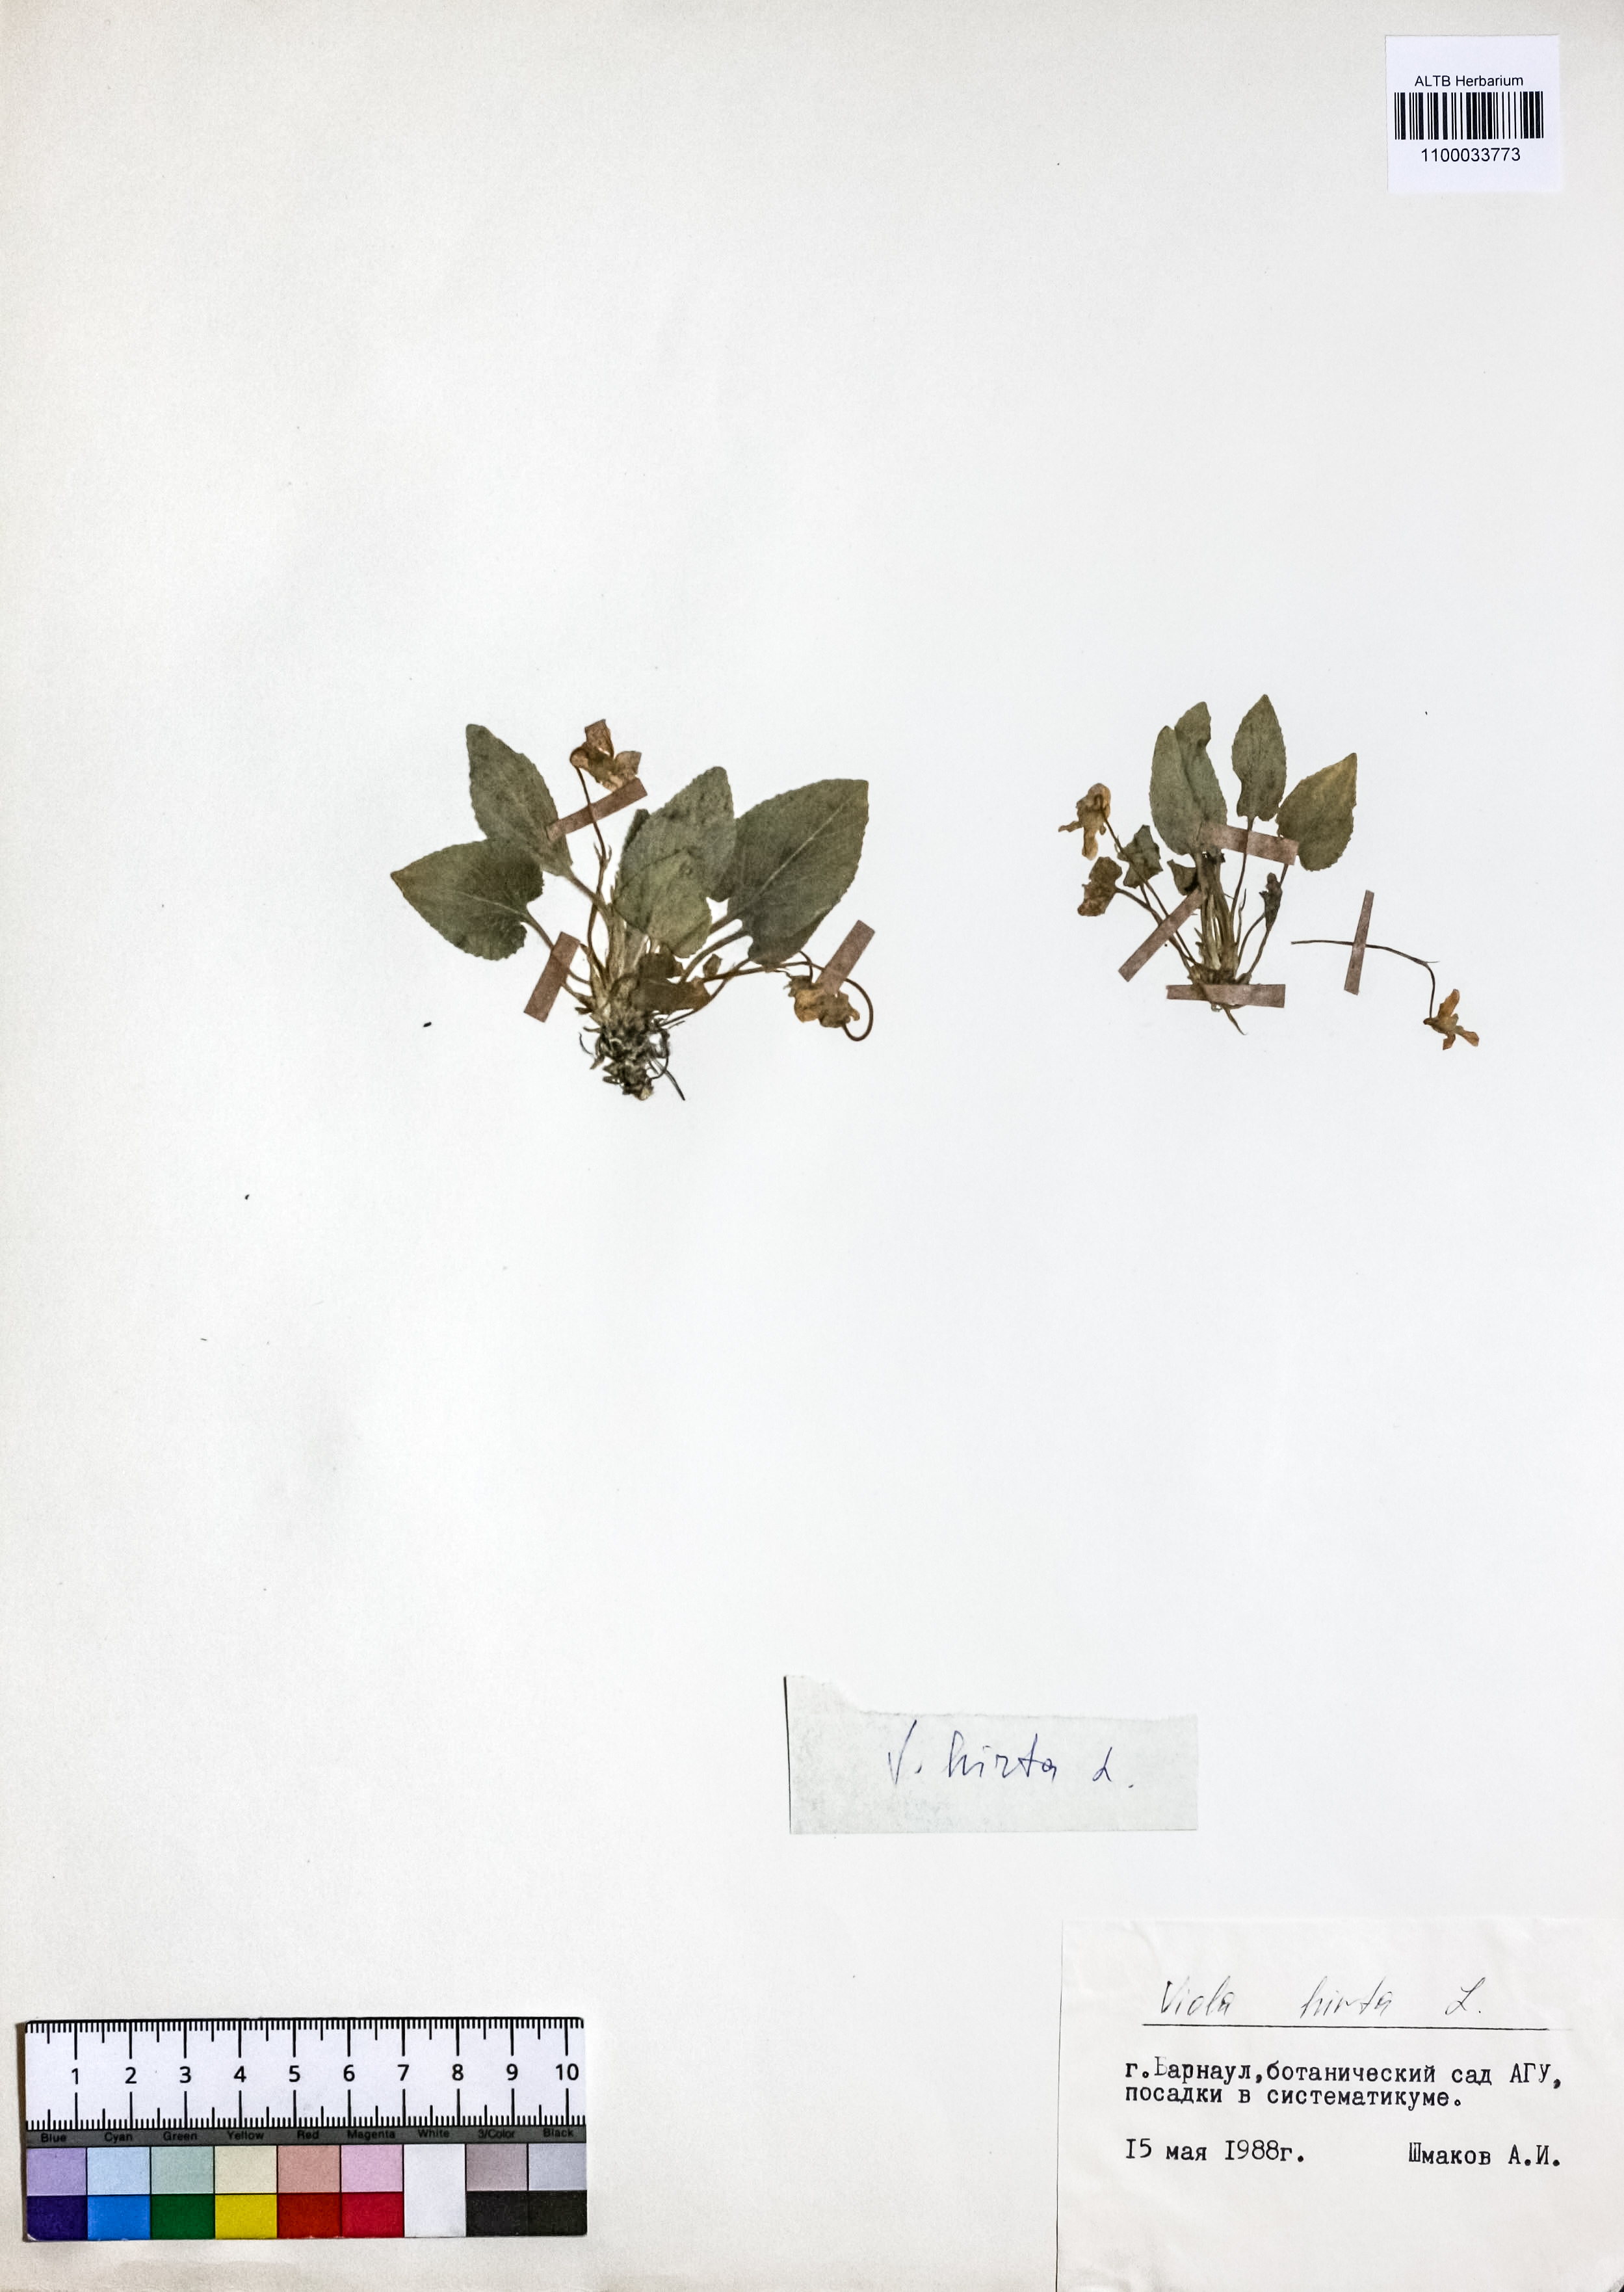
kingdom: Plantae
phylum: Tracheophyta
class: Magnoliopsida
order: Malpighiales
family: Violaceae
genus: Viola
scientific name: Viola hirta
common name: Hairy violet
